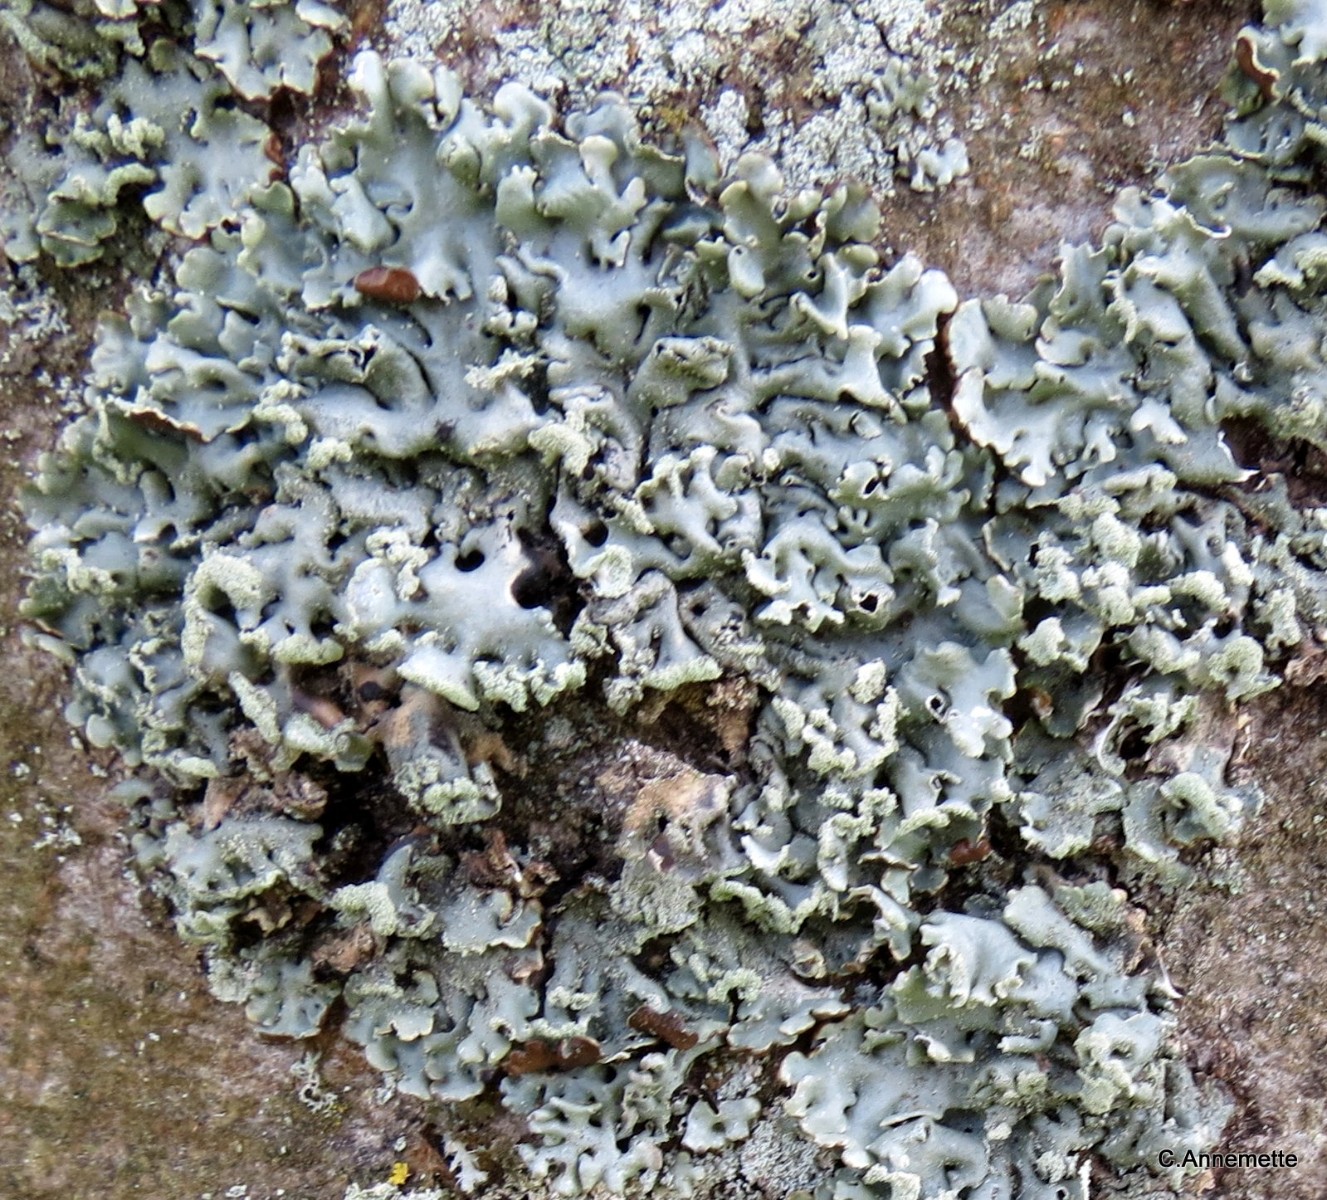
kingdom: Fungi
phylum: Ascomycota
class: Lecanoromycetes
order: Lecanorales
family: Parmeliaceae
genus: Hypogymnia
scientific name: Hypogymnia physodes
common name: almindelig kvistlav
